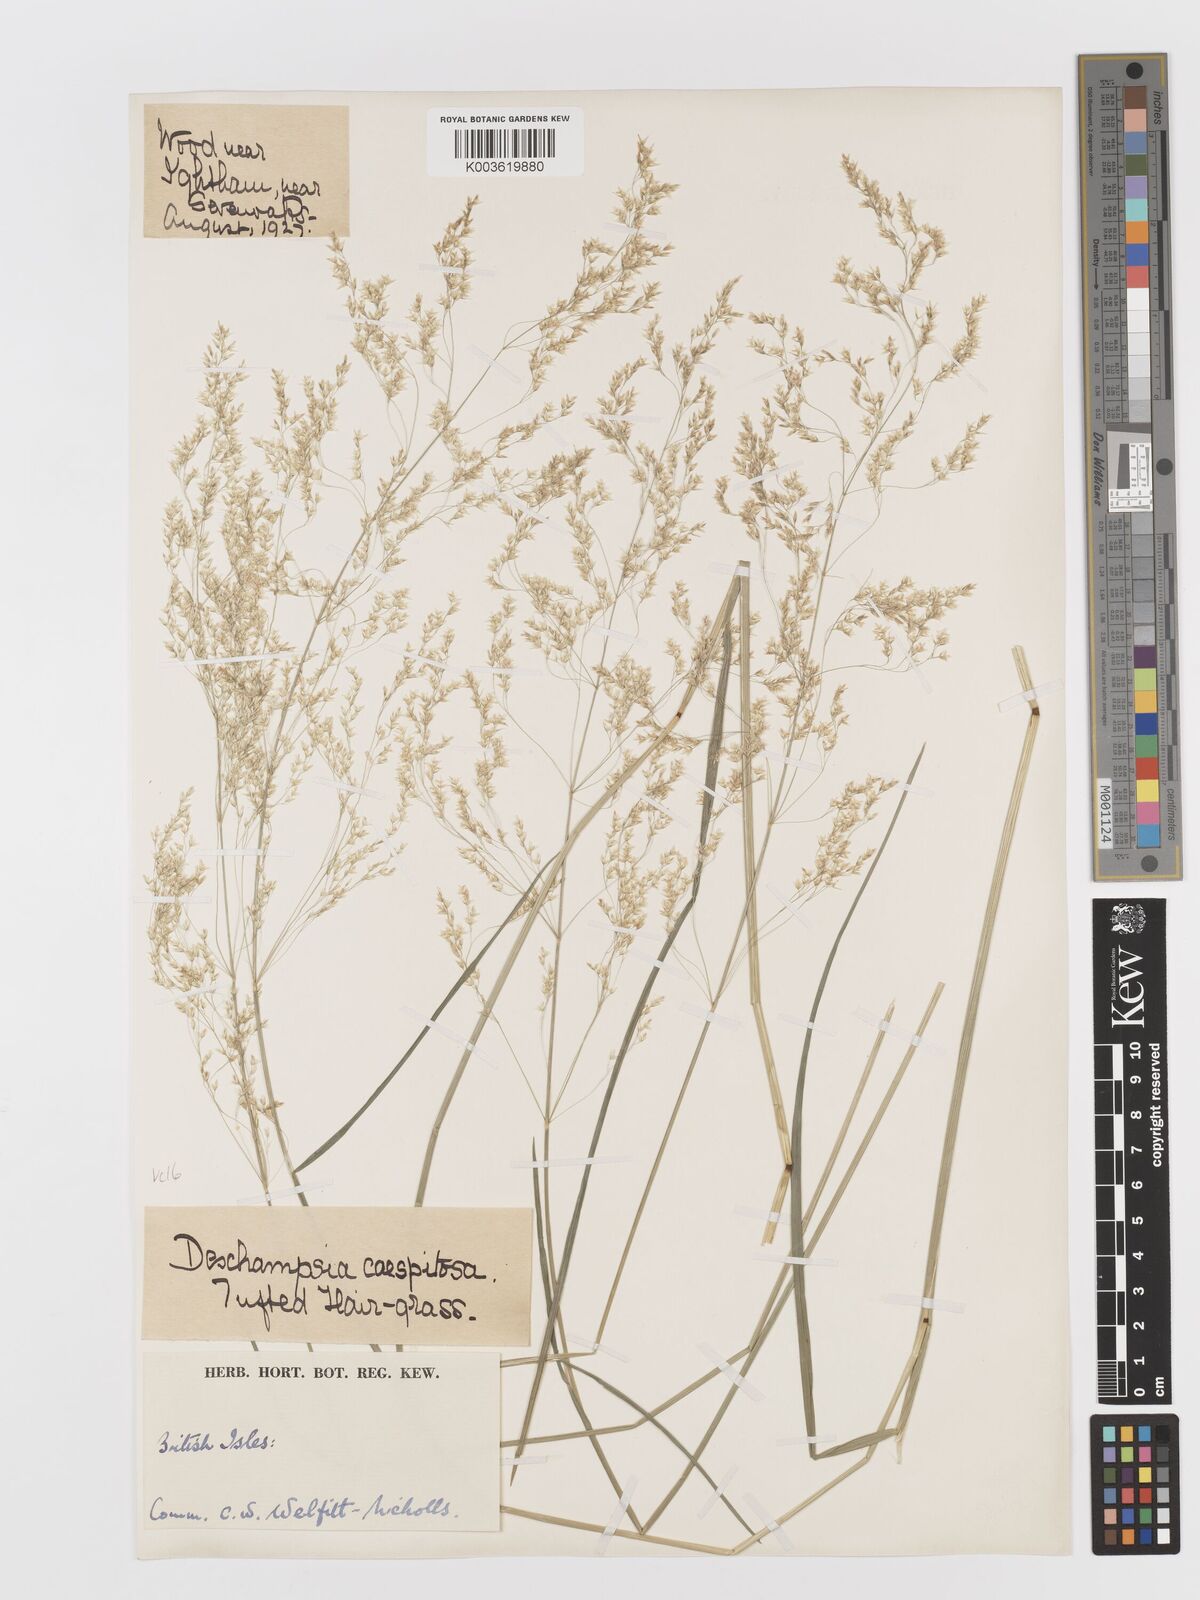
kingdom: Plantae
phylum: Tracheophyta
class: Liliopsida
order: Poales
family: Poaceae
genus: Deschampsia
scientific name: Deschampsia cespitosa
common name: Tufted hair-grass
